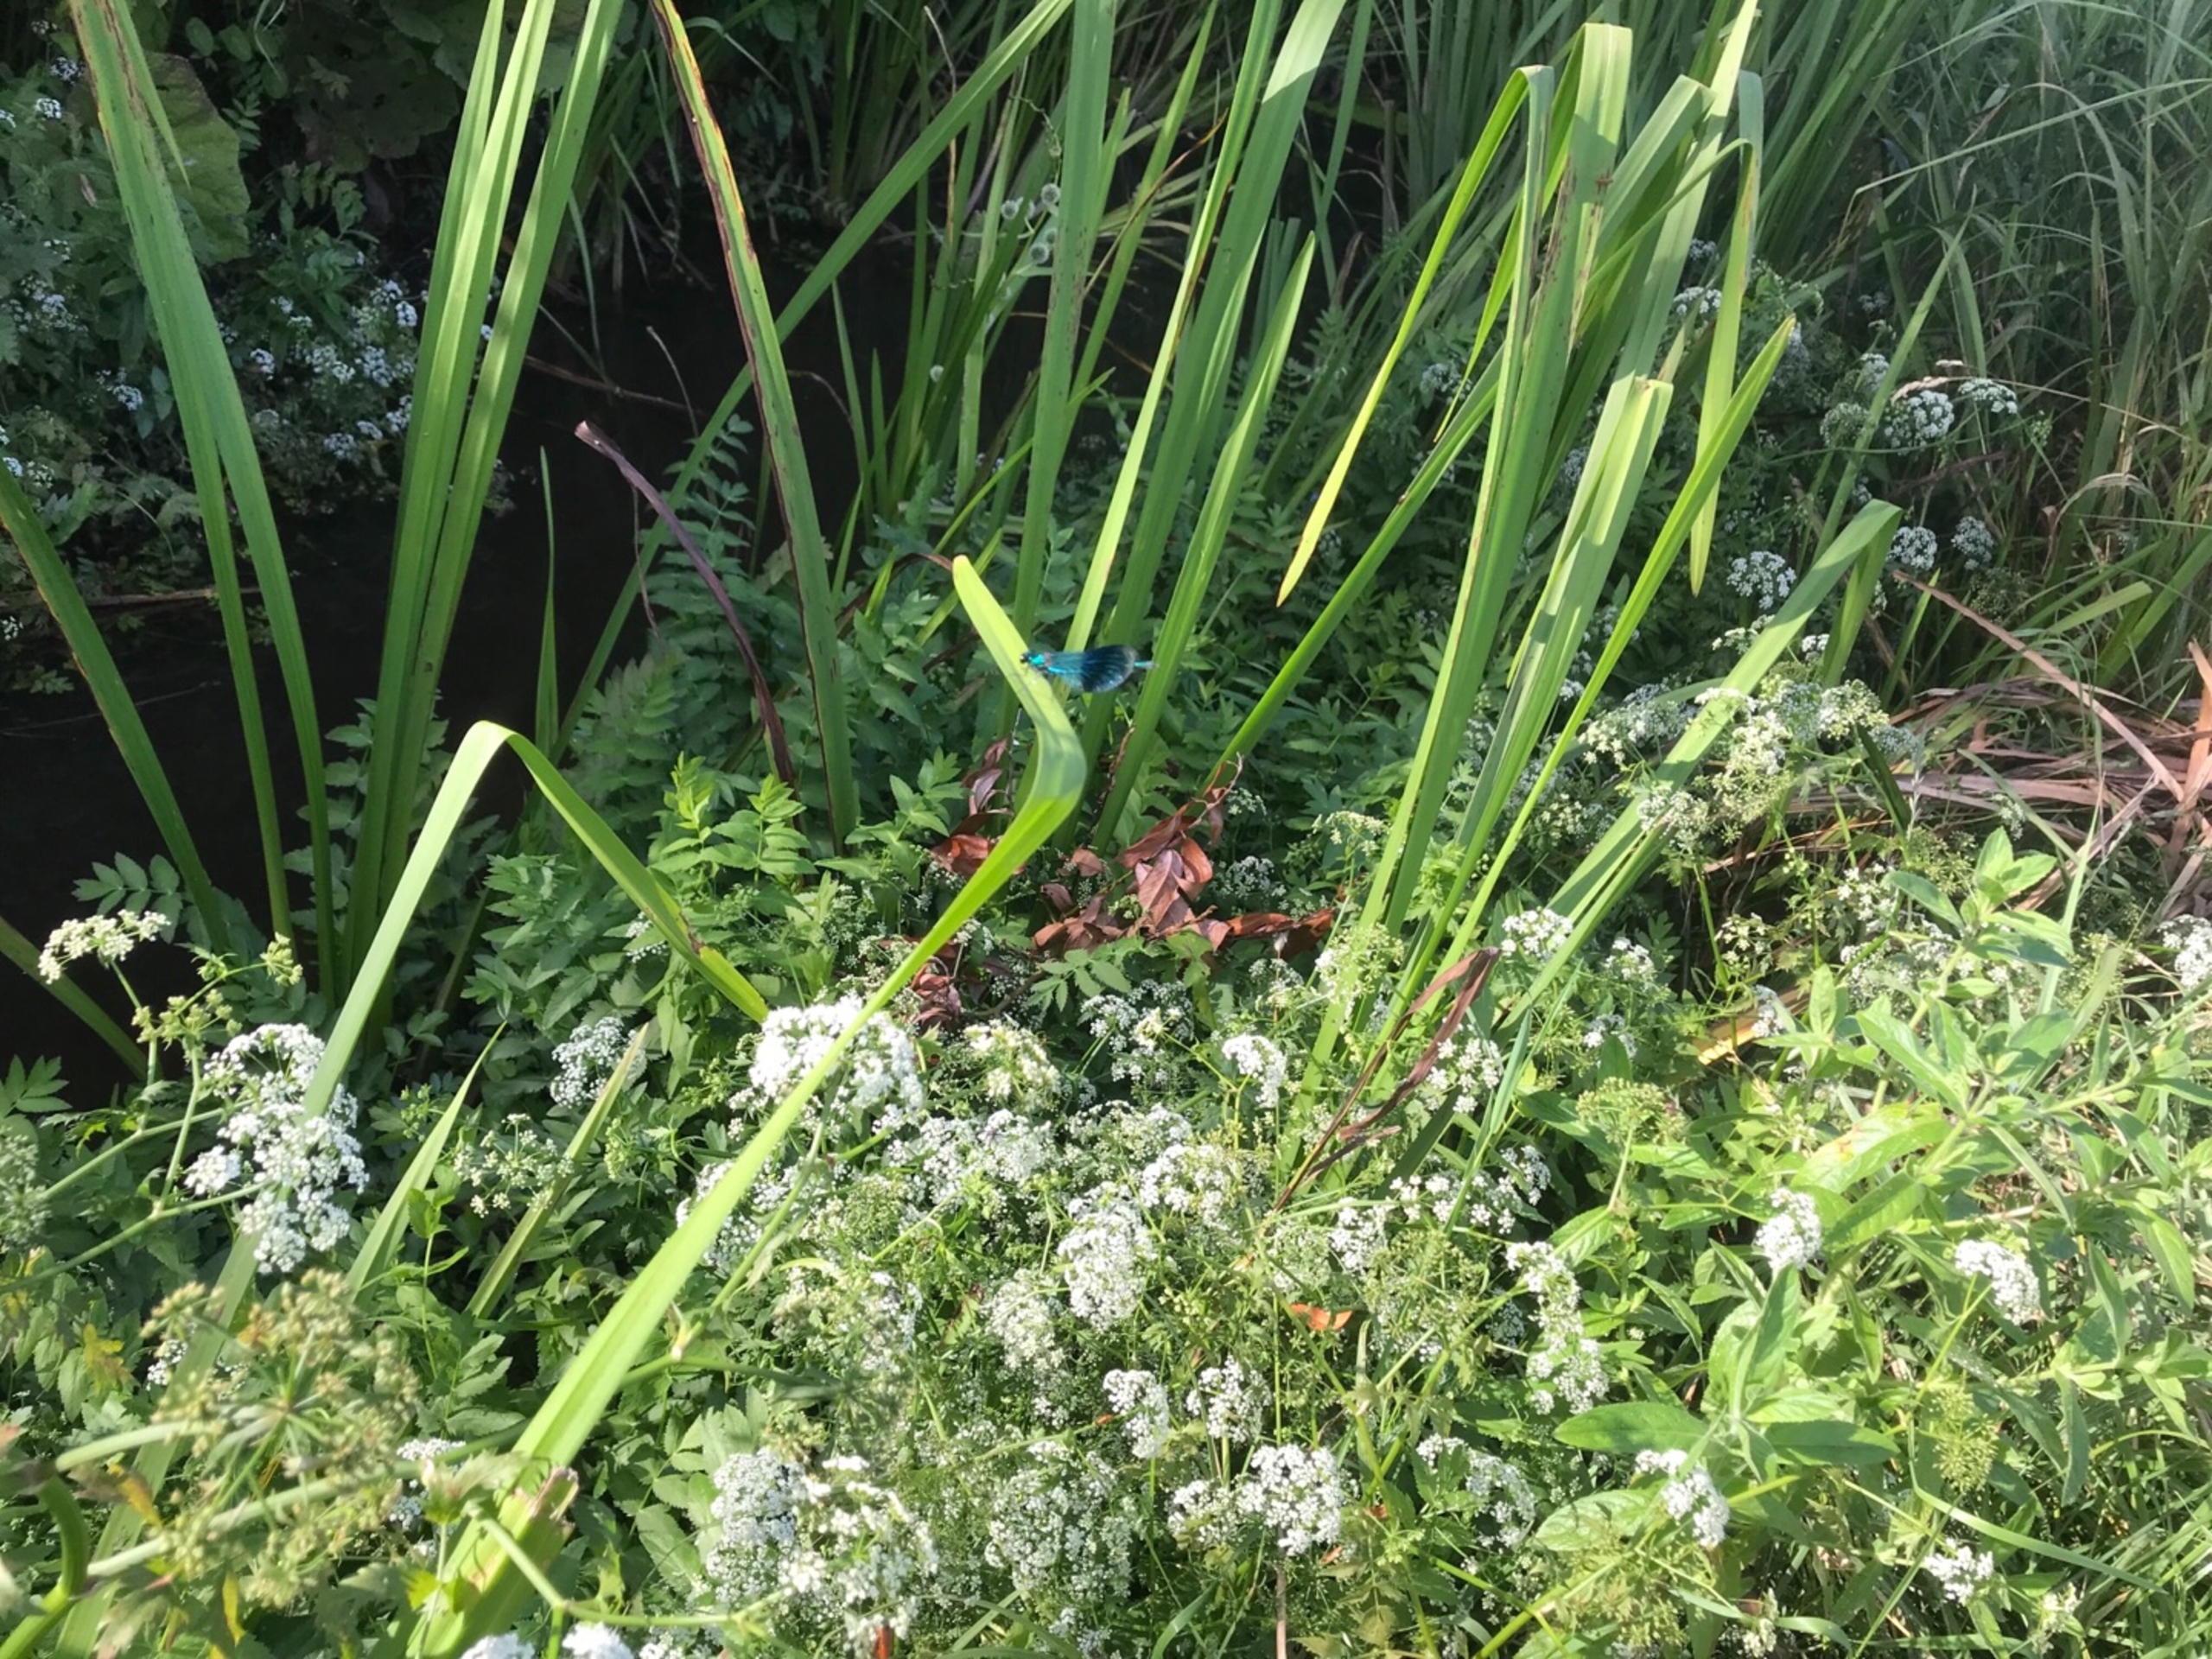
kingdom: Animalia
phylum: Arthropoda
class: Insecta
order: Odonata
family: Calopterygidae
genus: Calopteryx
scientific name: Calopteryx splendens
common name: Blåbåndet pragtvandnymfe
